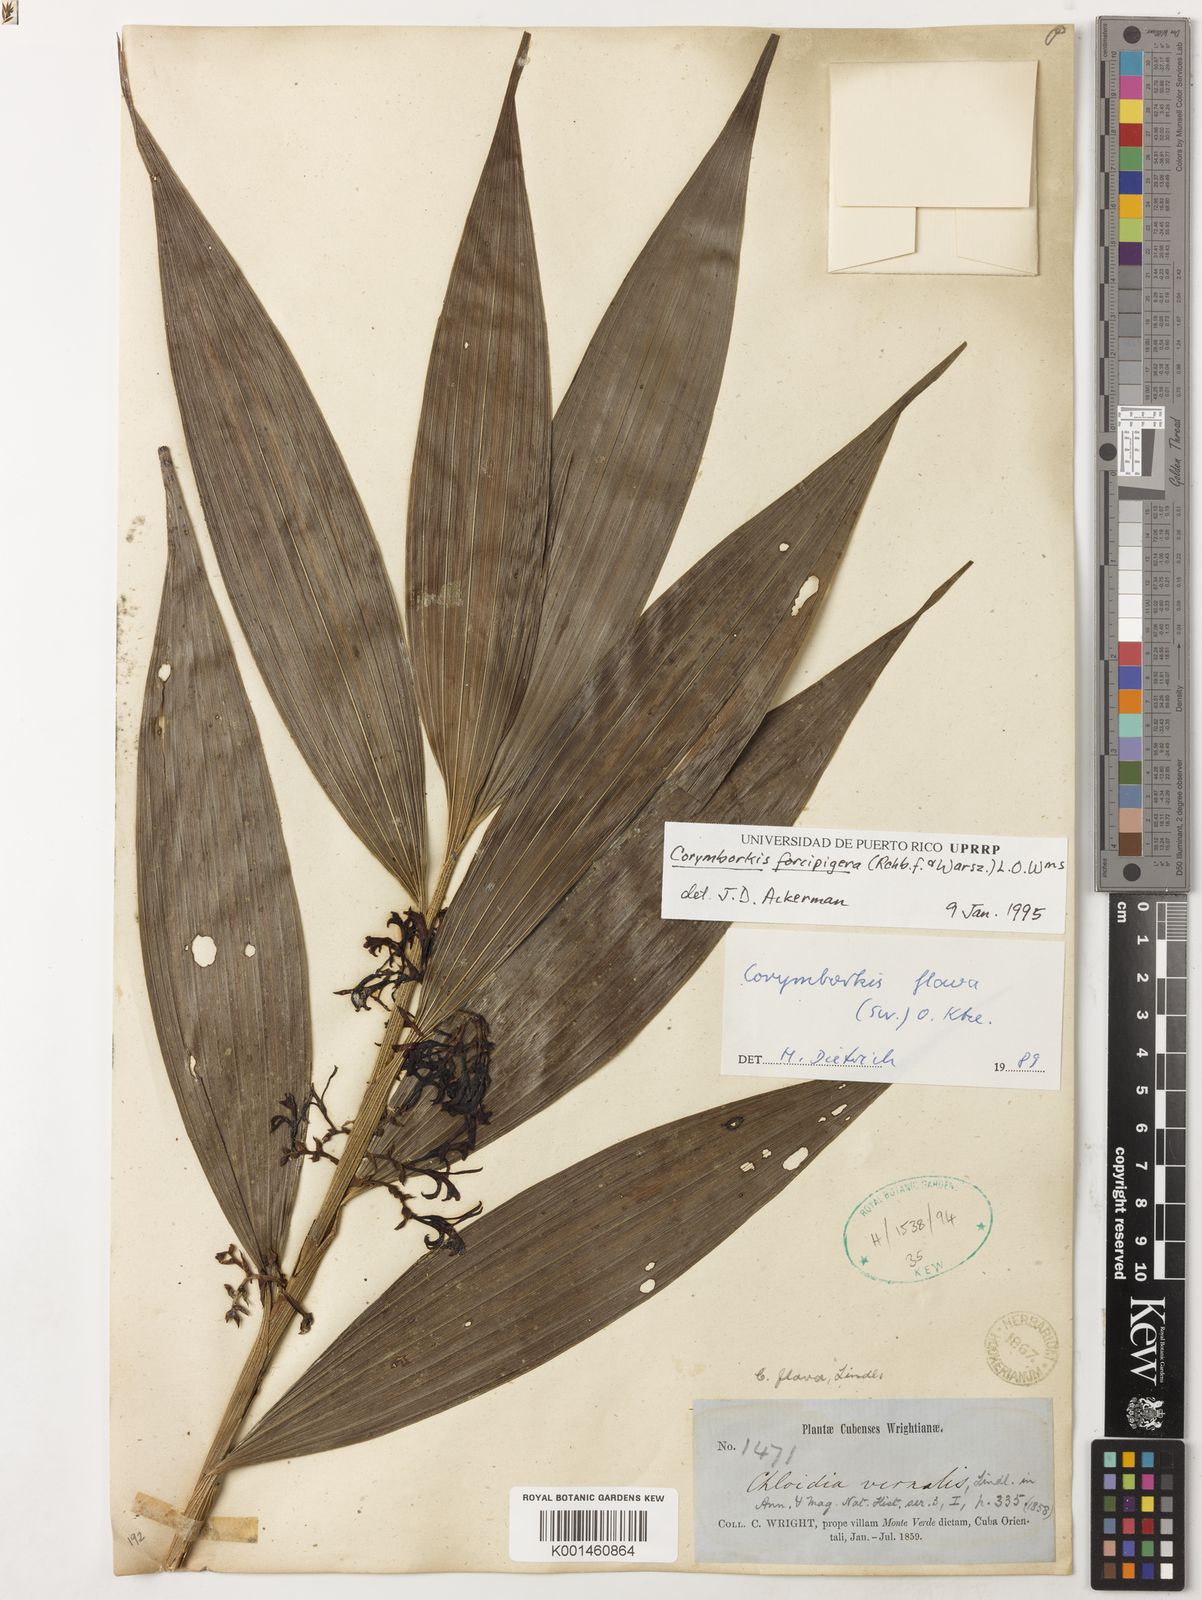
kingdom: Plantae
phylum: Tracheophyta
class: Liliopsida
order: Asparagales
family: Orchidaceae
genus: Corymborkis
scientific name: Corymborkis flava
